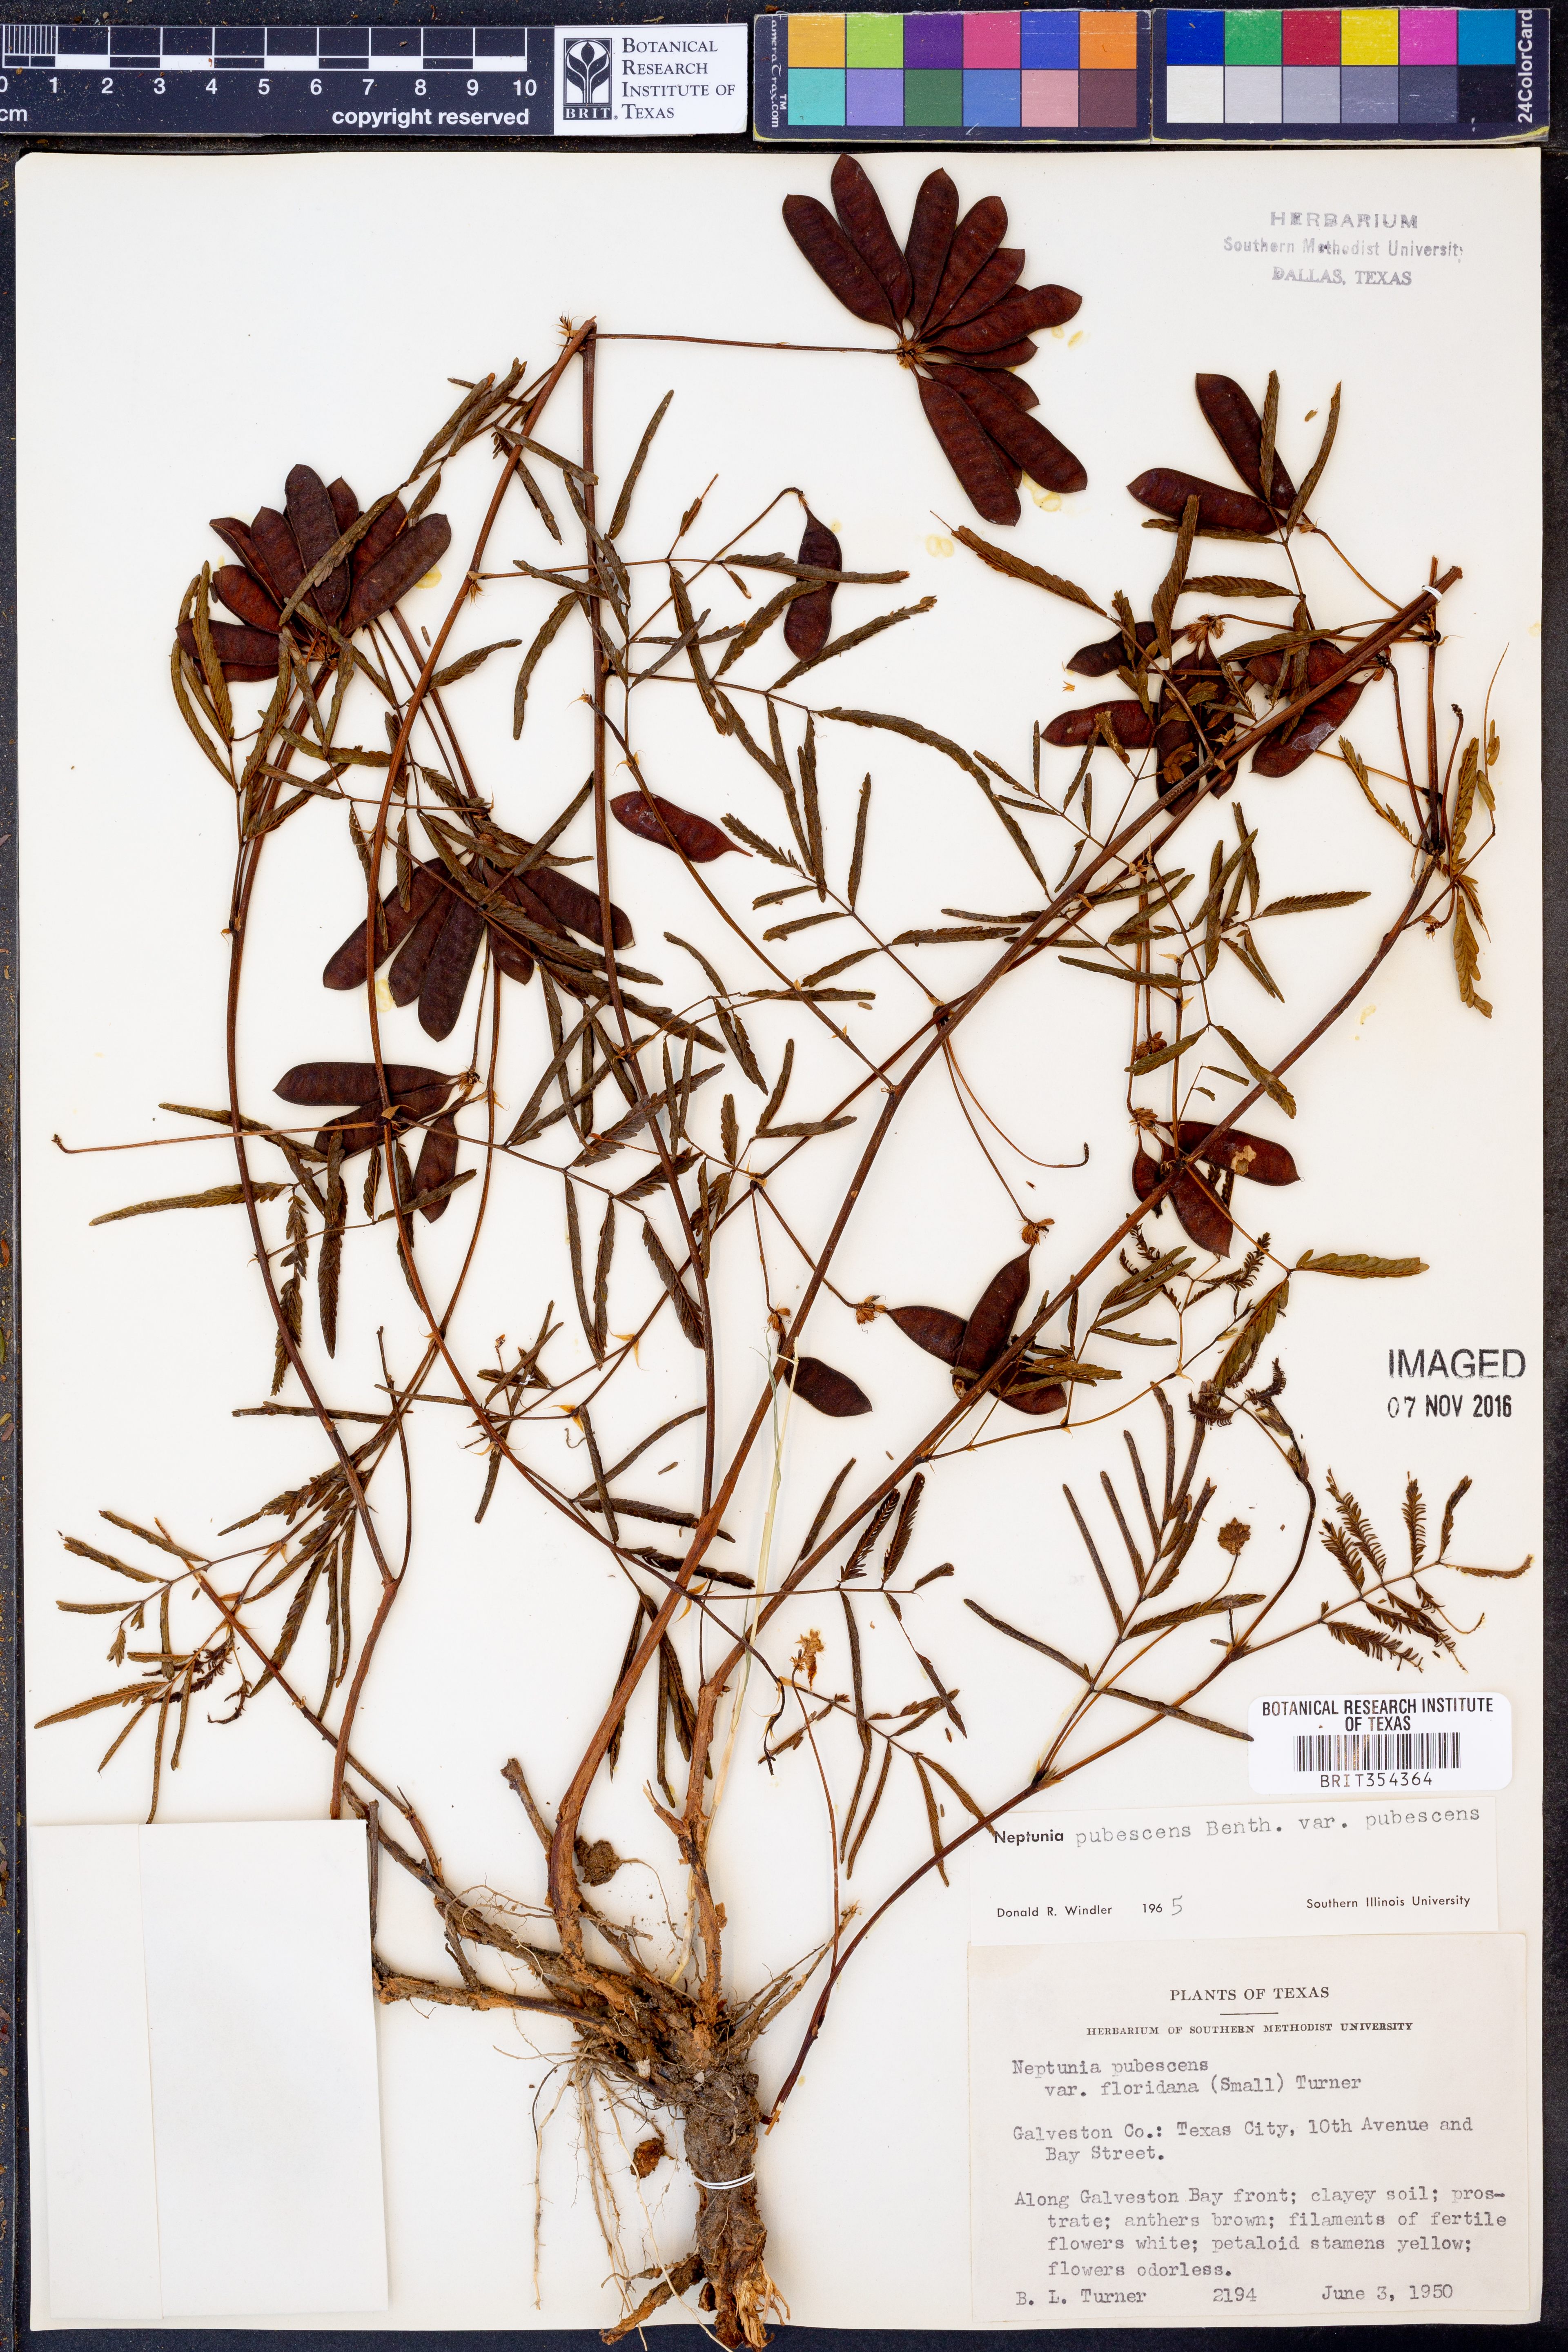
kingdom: Plantae
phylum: Tracheophyta
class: Magnoliopsida
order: Fabales
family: Fabaceae
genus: Neptunia
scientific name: Neptunia pubescens
